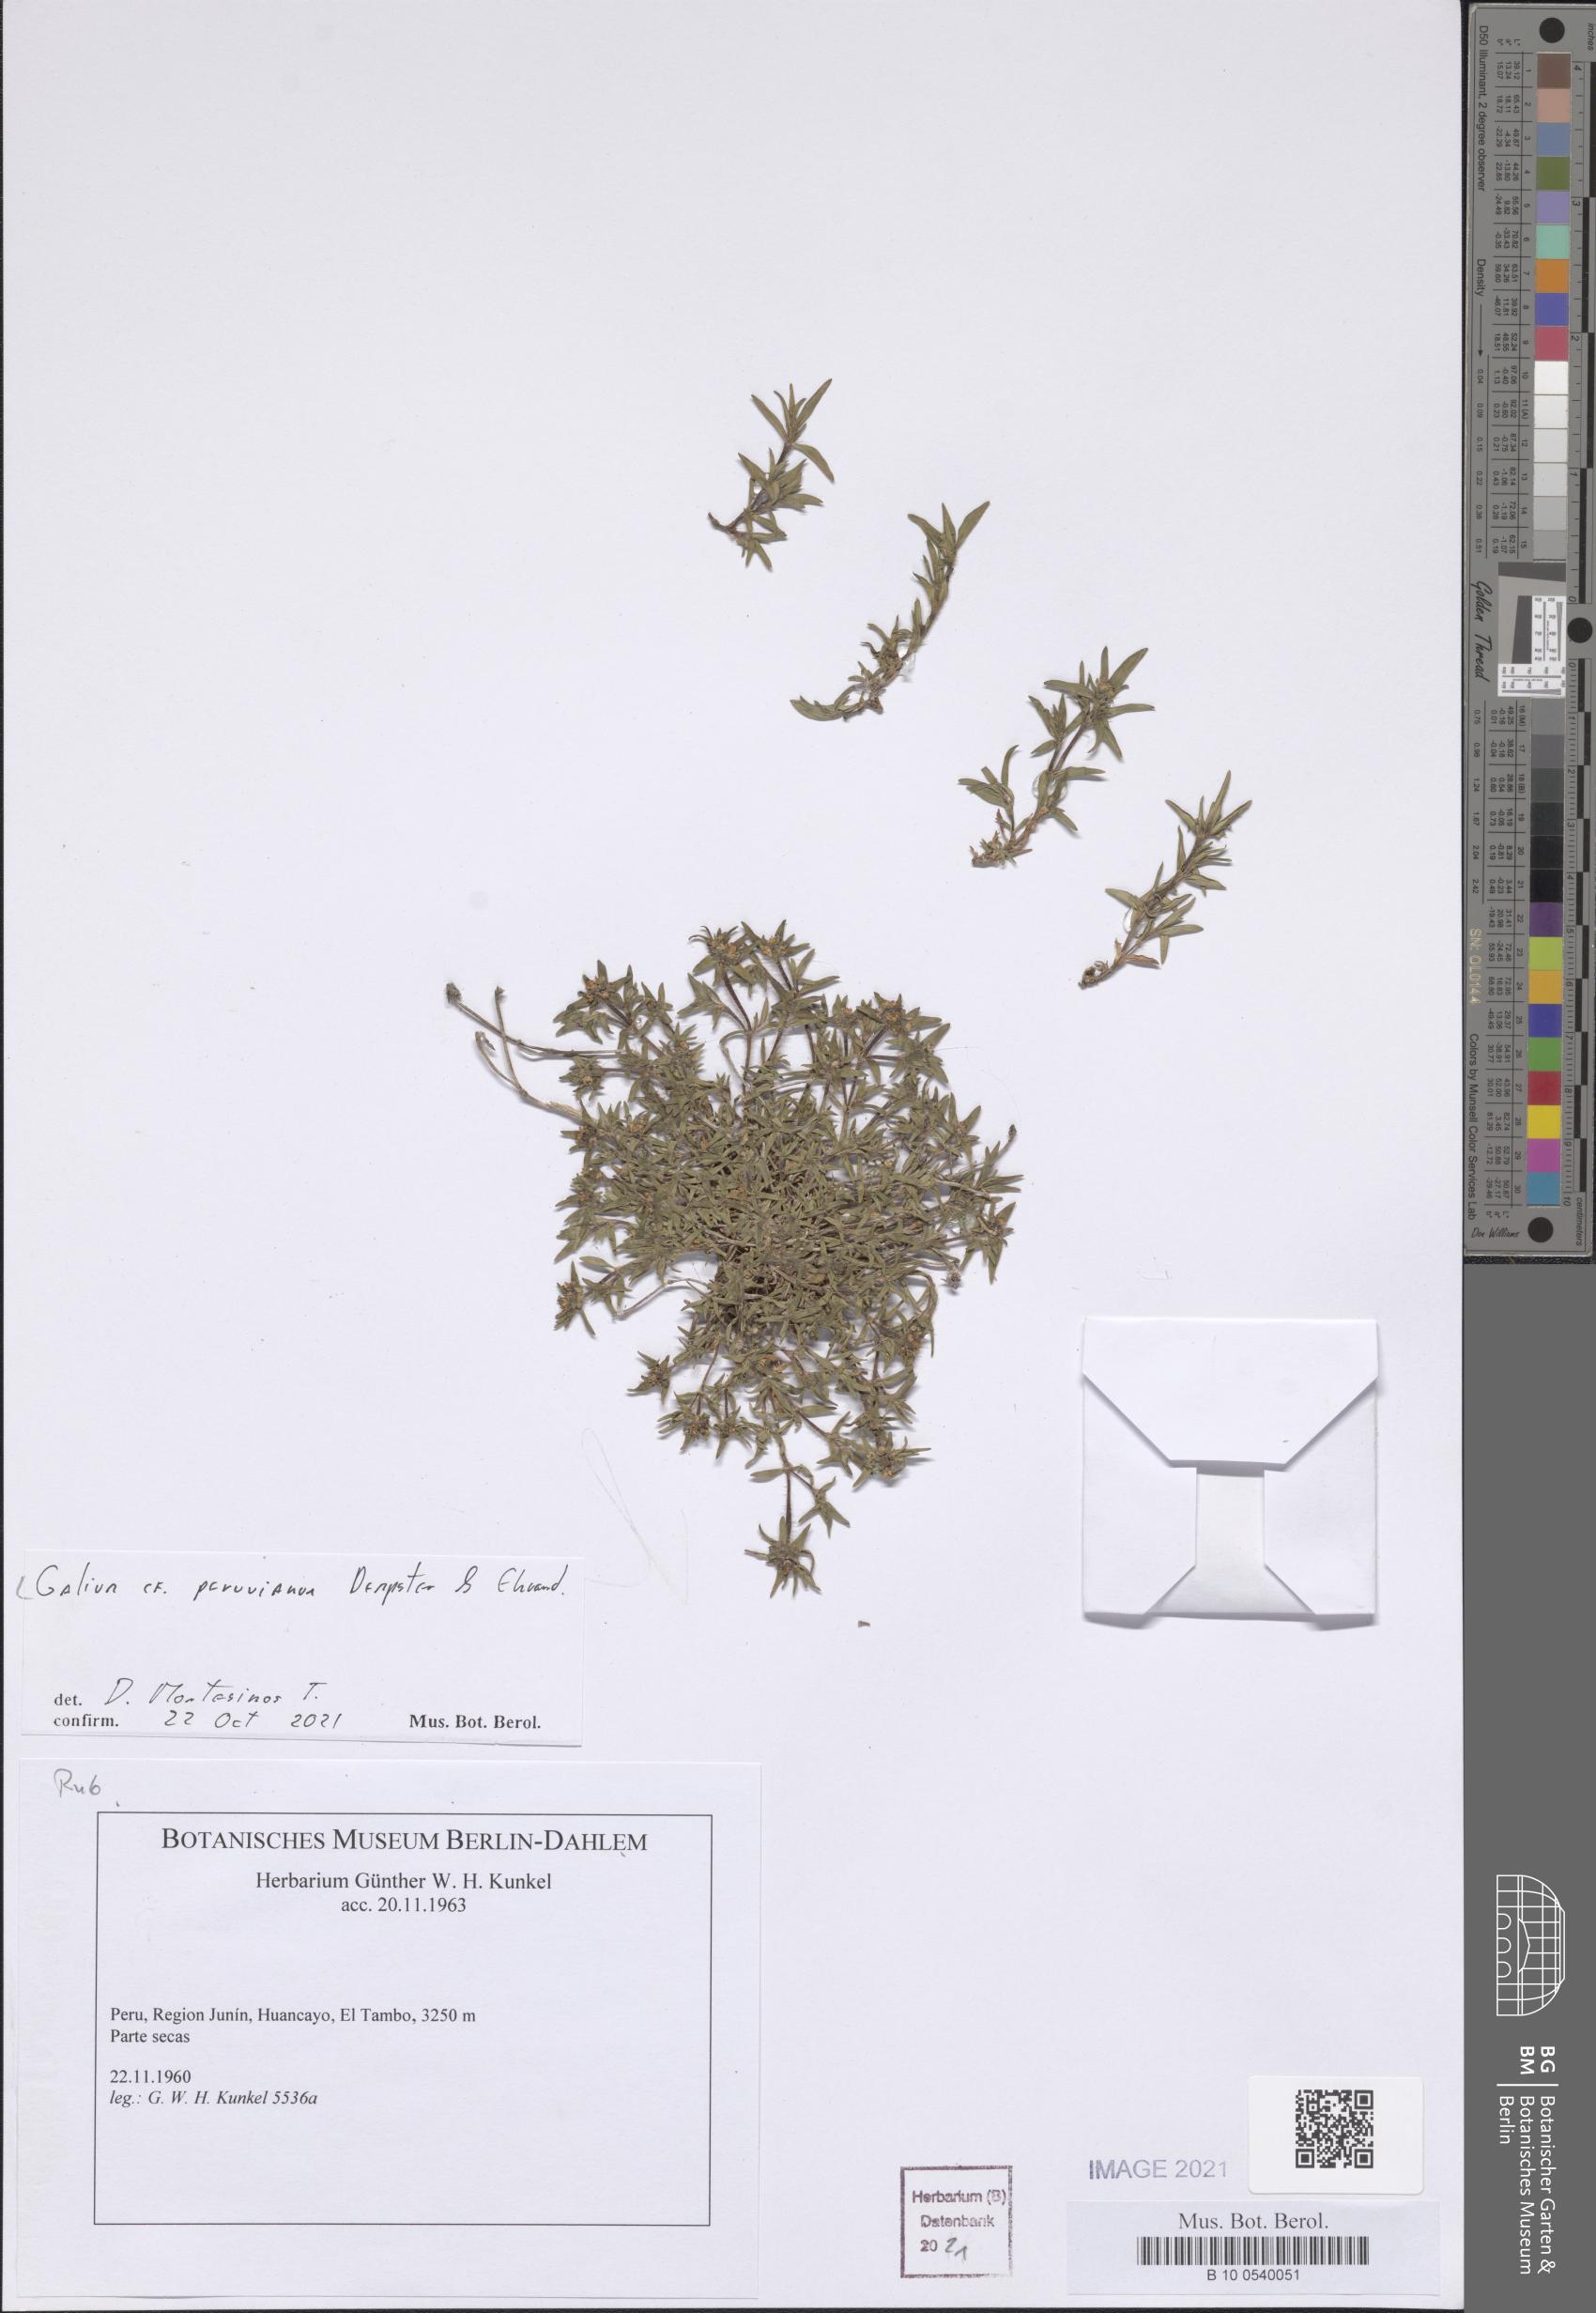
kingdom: Plantae
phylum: Tracheophyta
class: Magnoliopsida
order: Gentianales
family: Rubiaceae
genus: Galium
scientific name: Galium peruvianum
